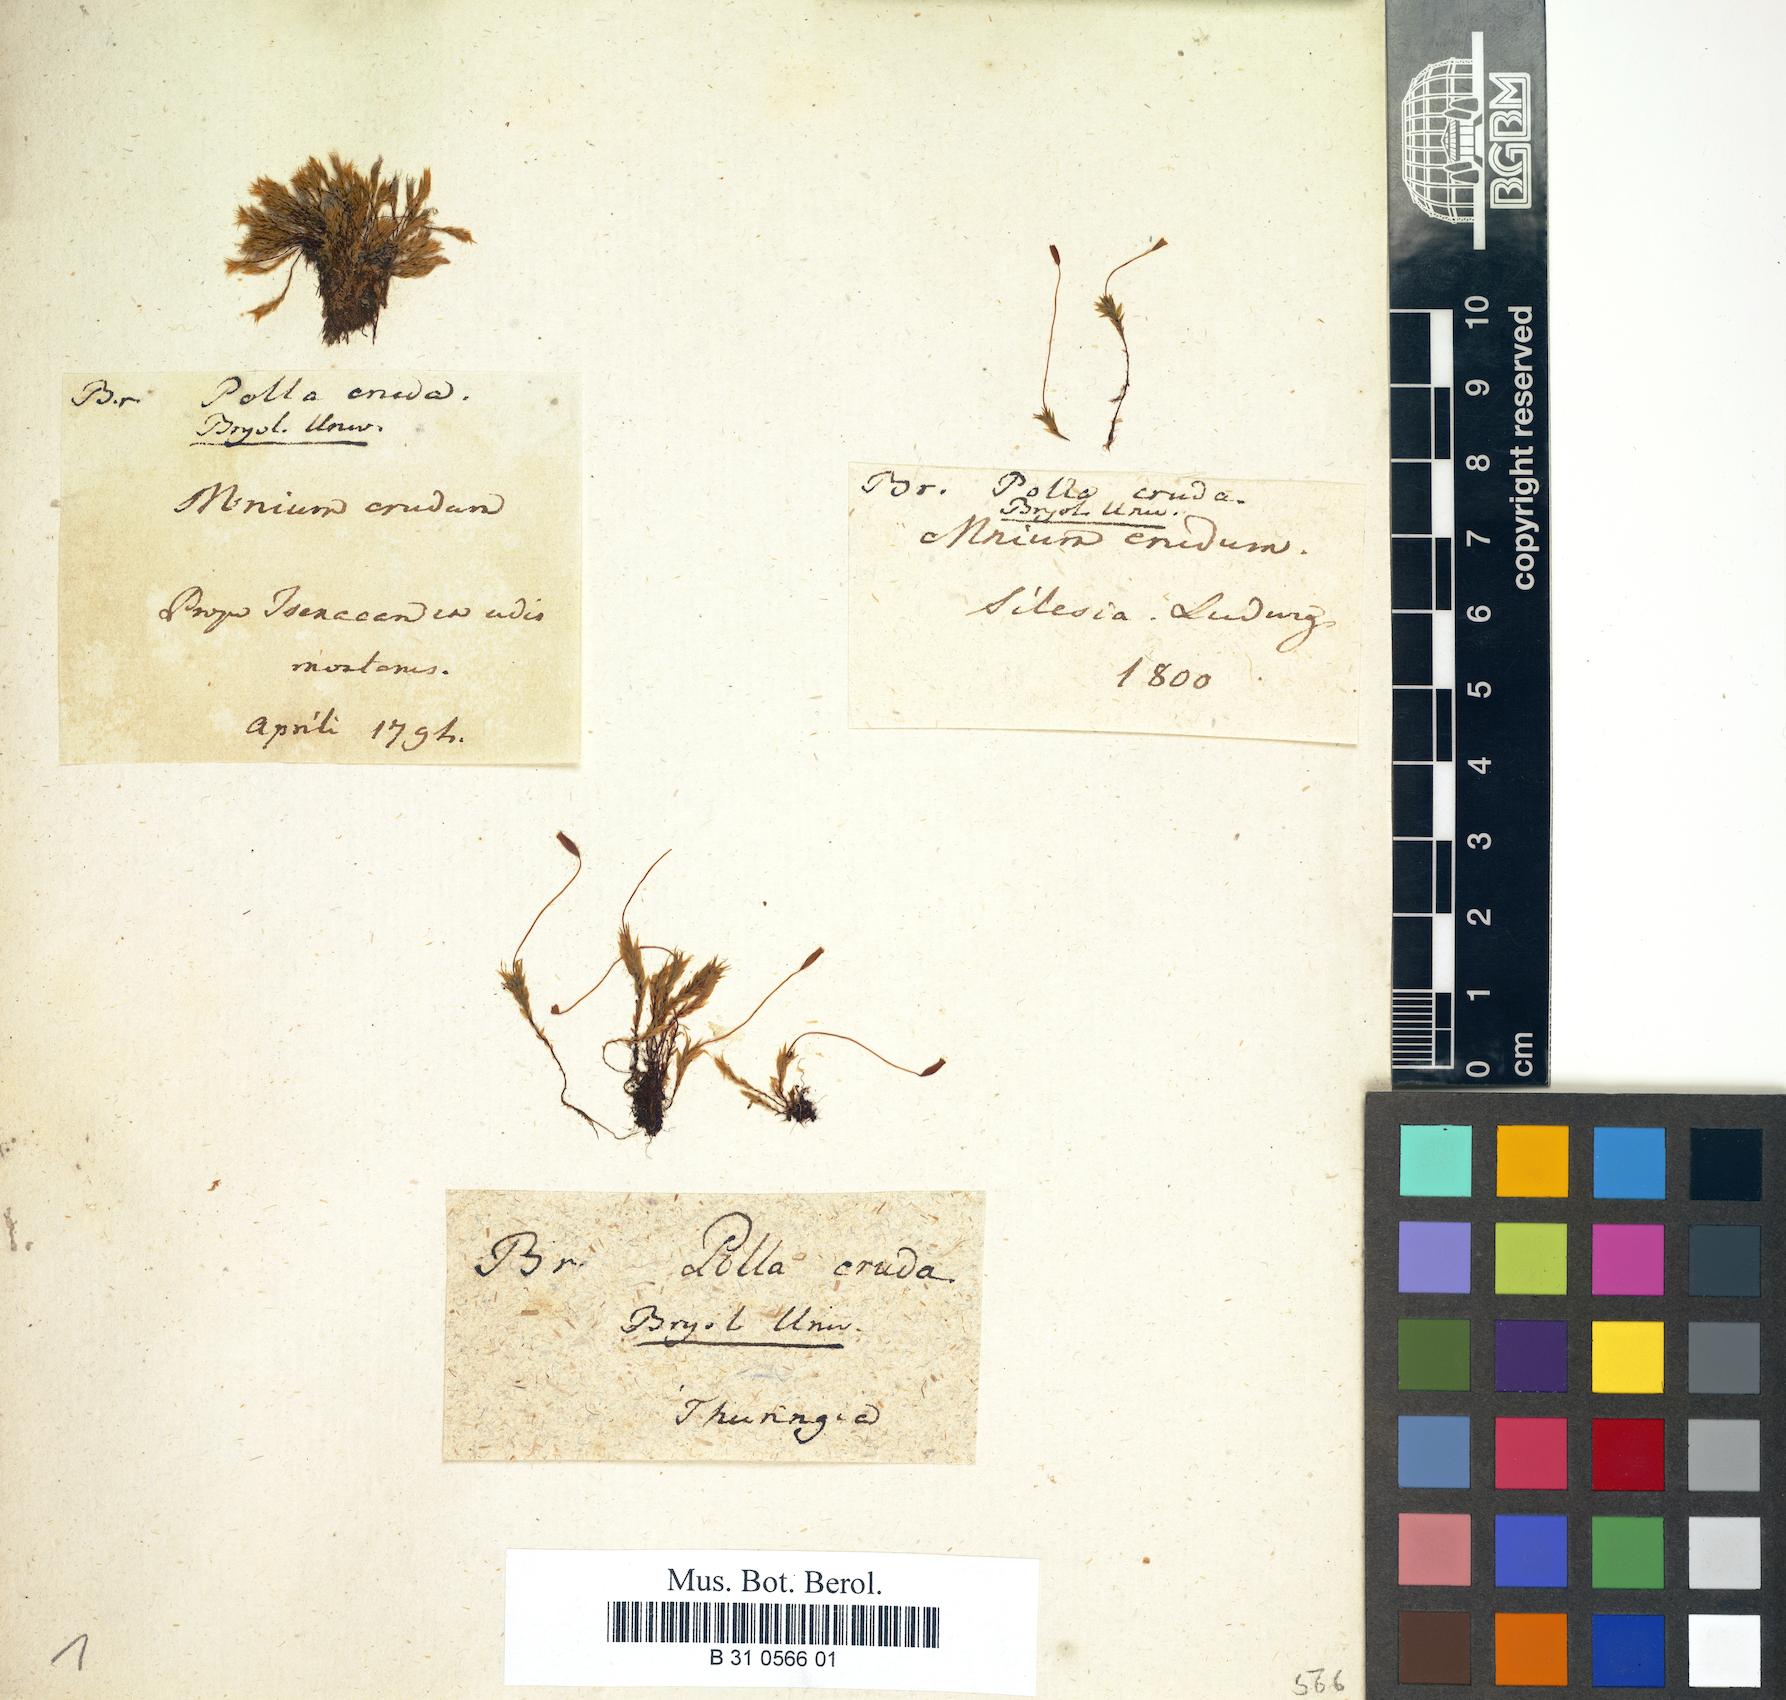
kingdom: Plantae
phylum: Bryophyta
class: Bryopsida
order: Bryales
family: Mniaceae
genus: Pohlia
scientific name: Pohlia cruda
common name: Opal nodding moss
